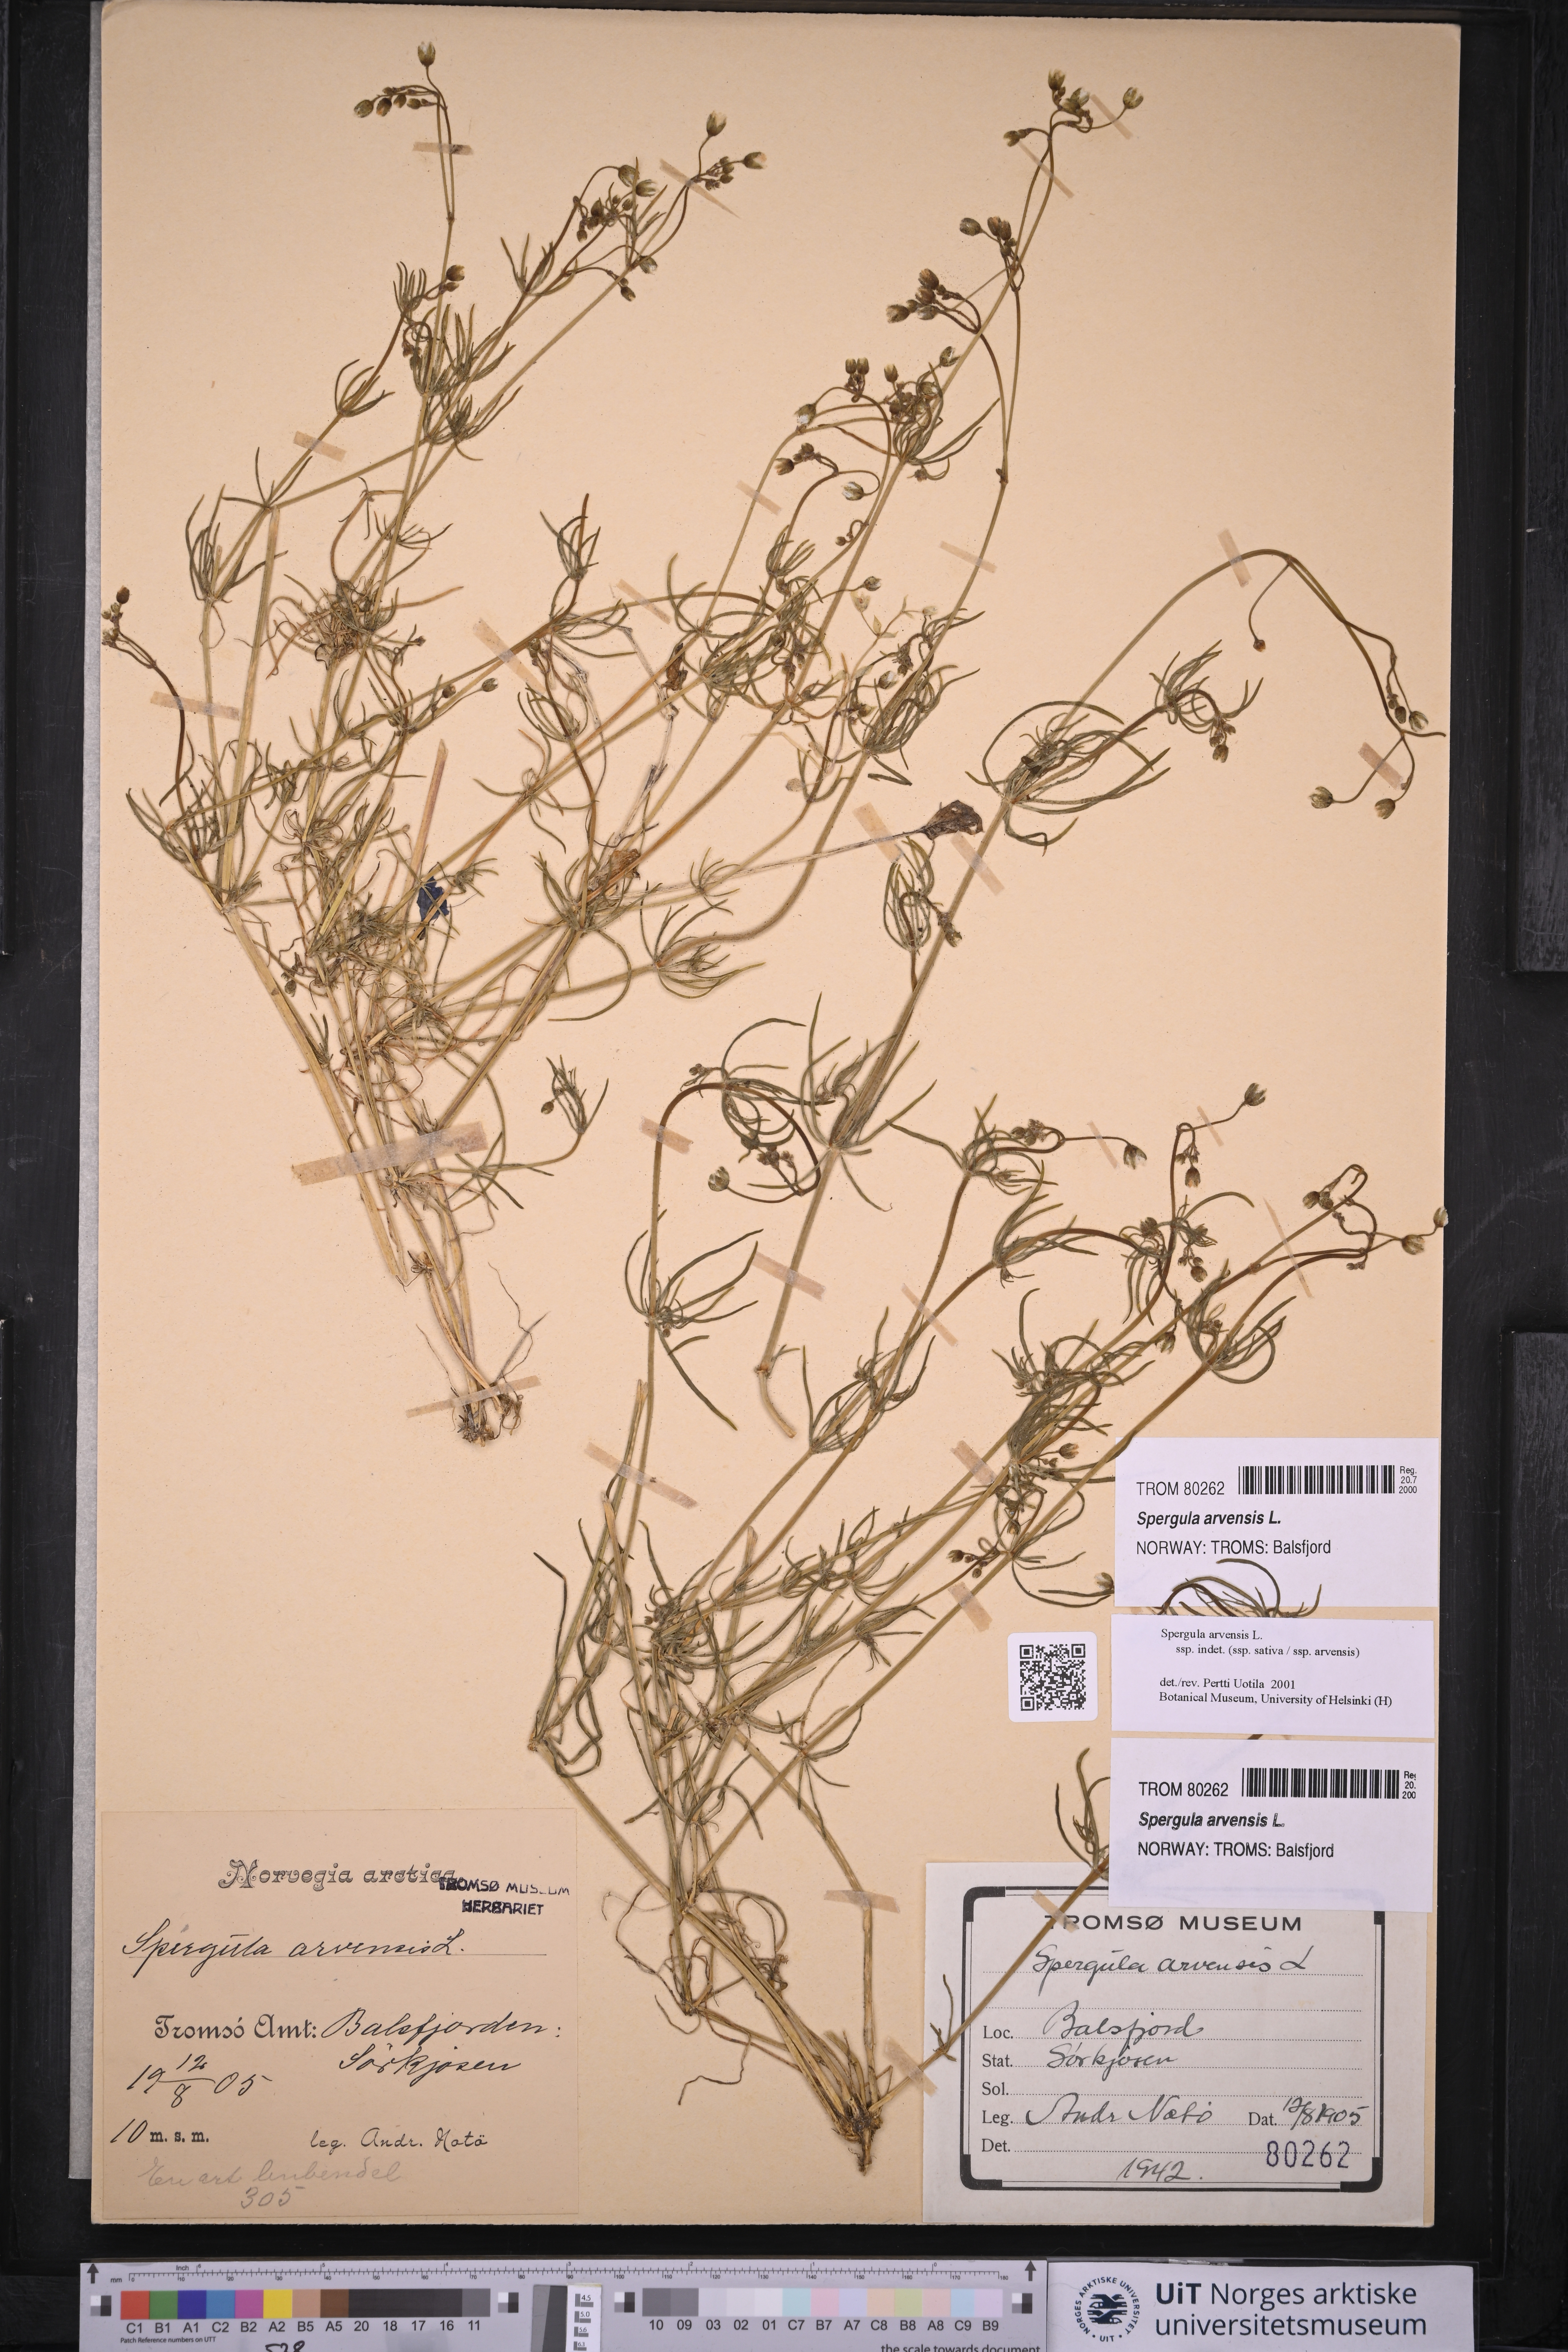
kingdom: Plantae
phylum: Tracheophyta
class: Magnoliopsida
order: Caryophyllales
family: Caryophyllaceae
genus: Spergula
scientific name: Spergula arvensis
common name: Corn spurrey
